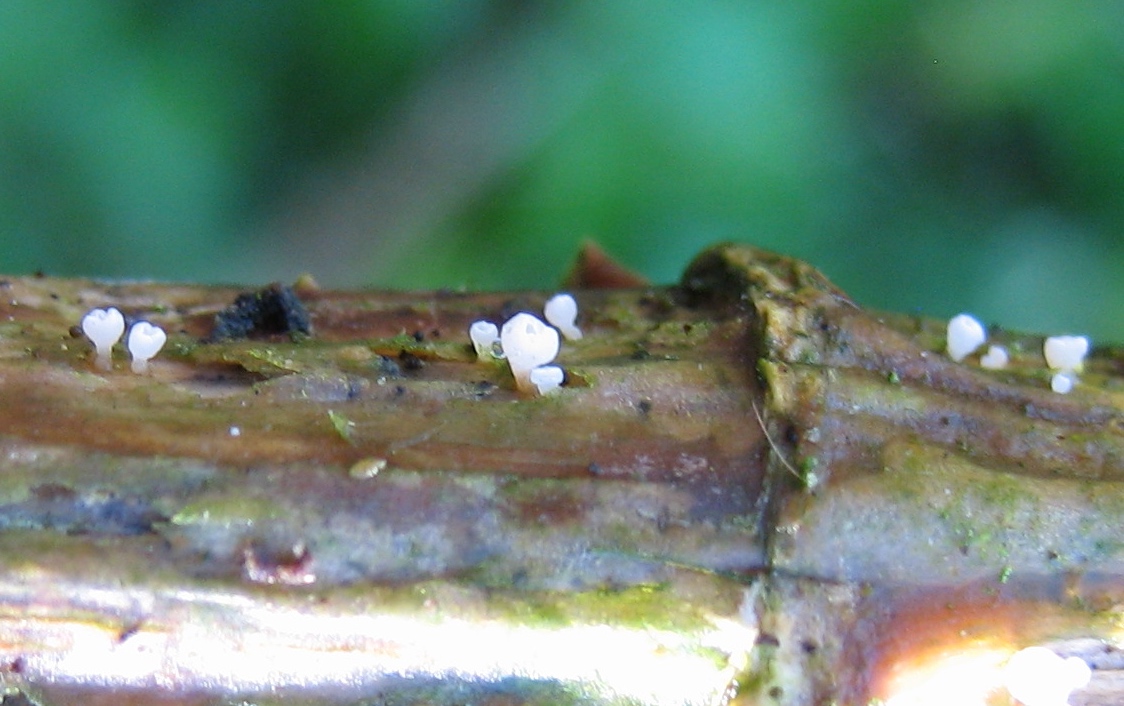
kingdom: Fungi
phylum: Basidiomycota
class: Agaricomycetes
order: Agaricales
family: Marasmiaceae
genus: Calyptella
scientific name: Calyptella capula
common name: hvidlig nældehue
